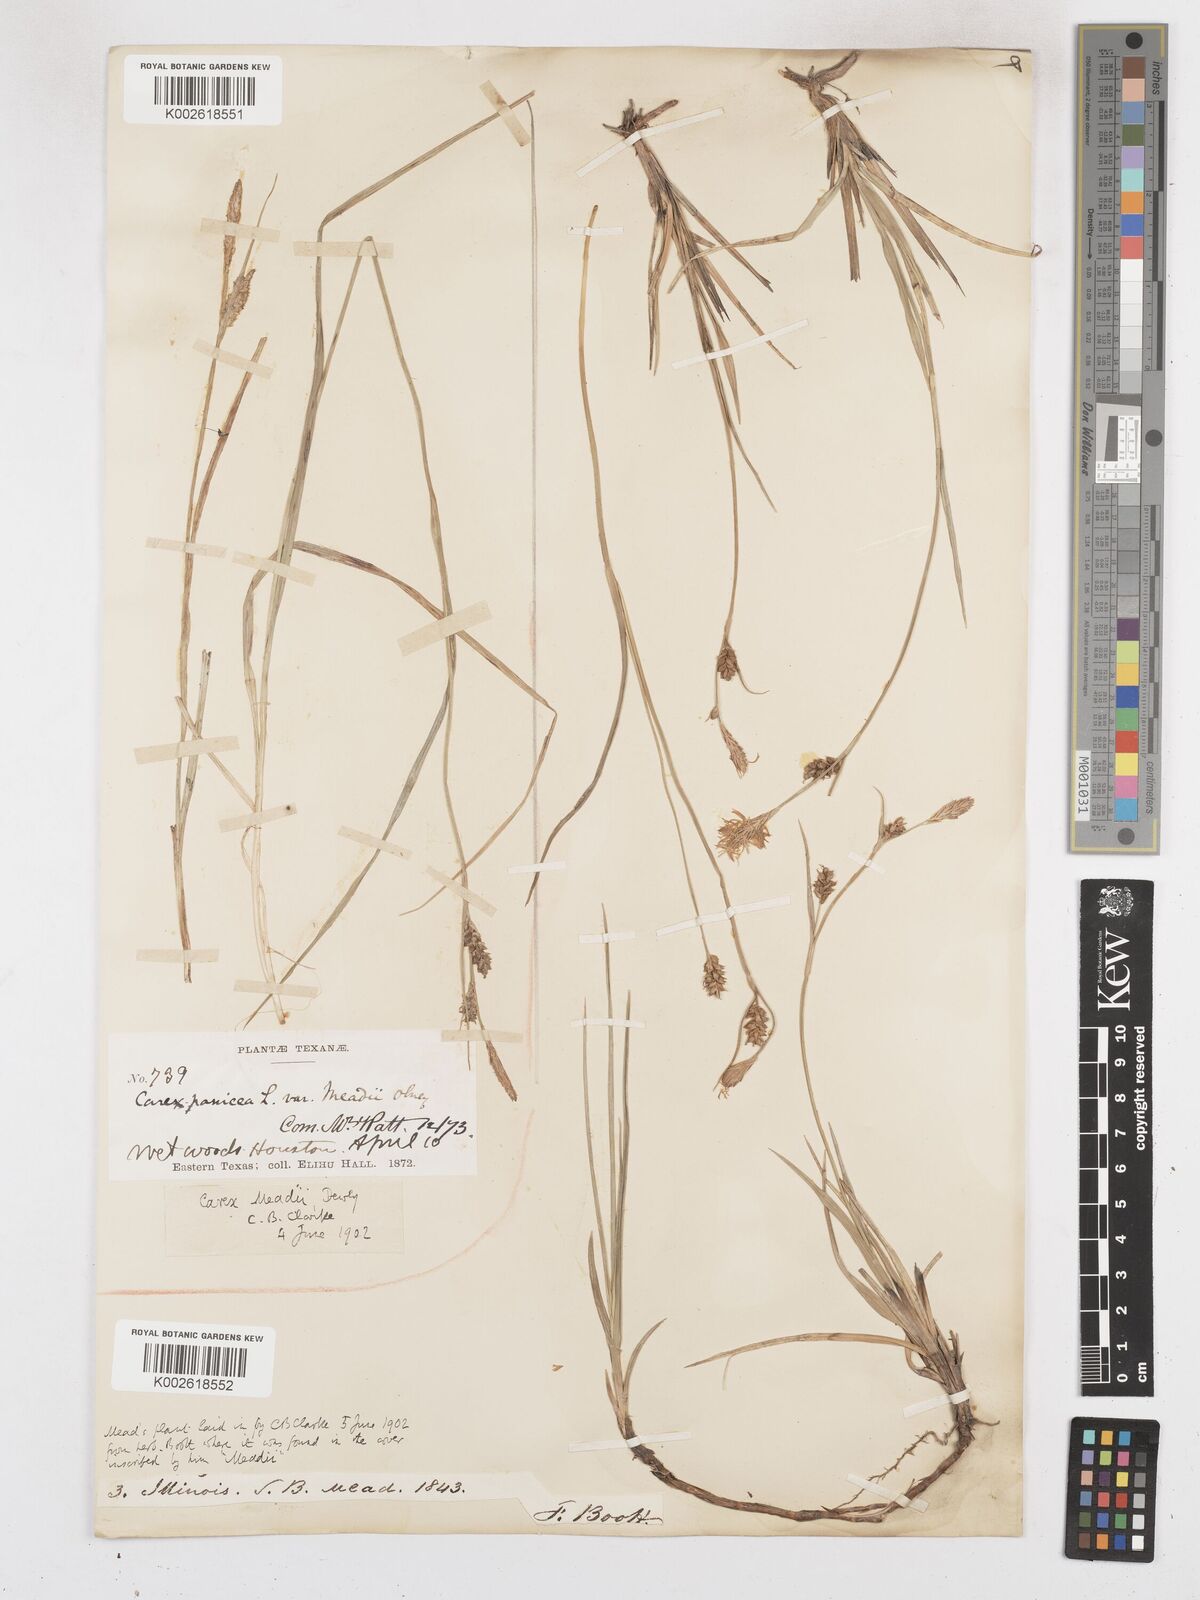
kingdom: Plantae
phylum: Tracheophyta
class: Liliopsida
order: Poales
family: Cyperaceae
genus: Carex
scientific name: Carex meadii
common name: Mead's sedge
